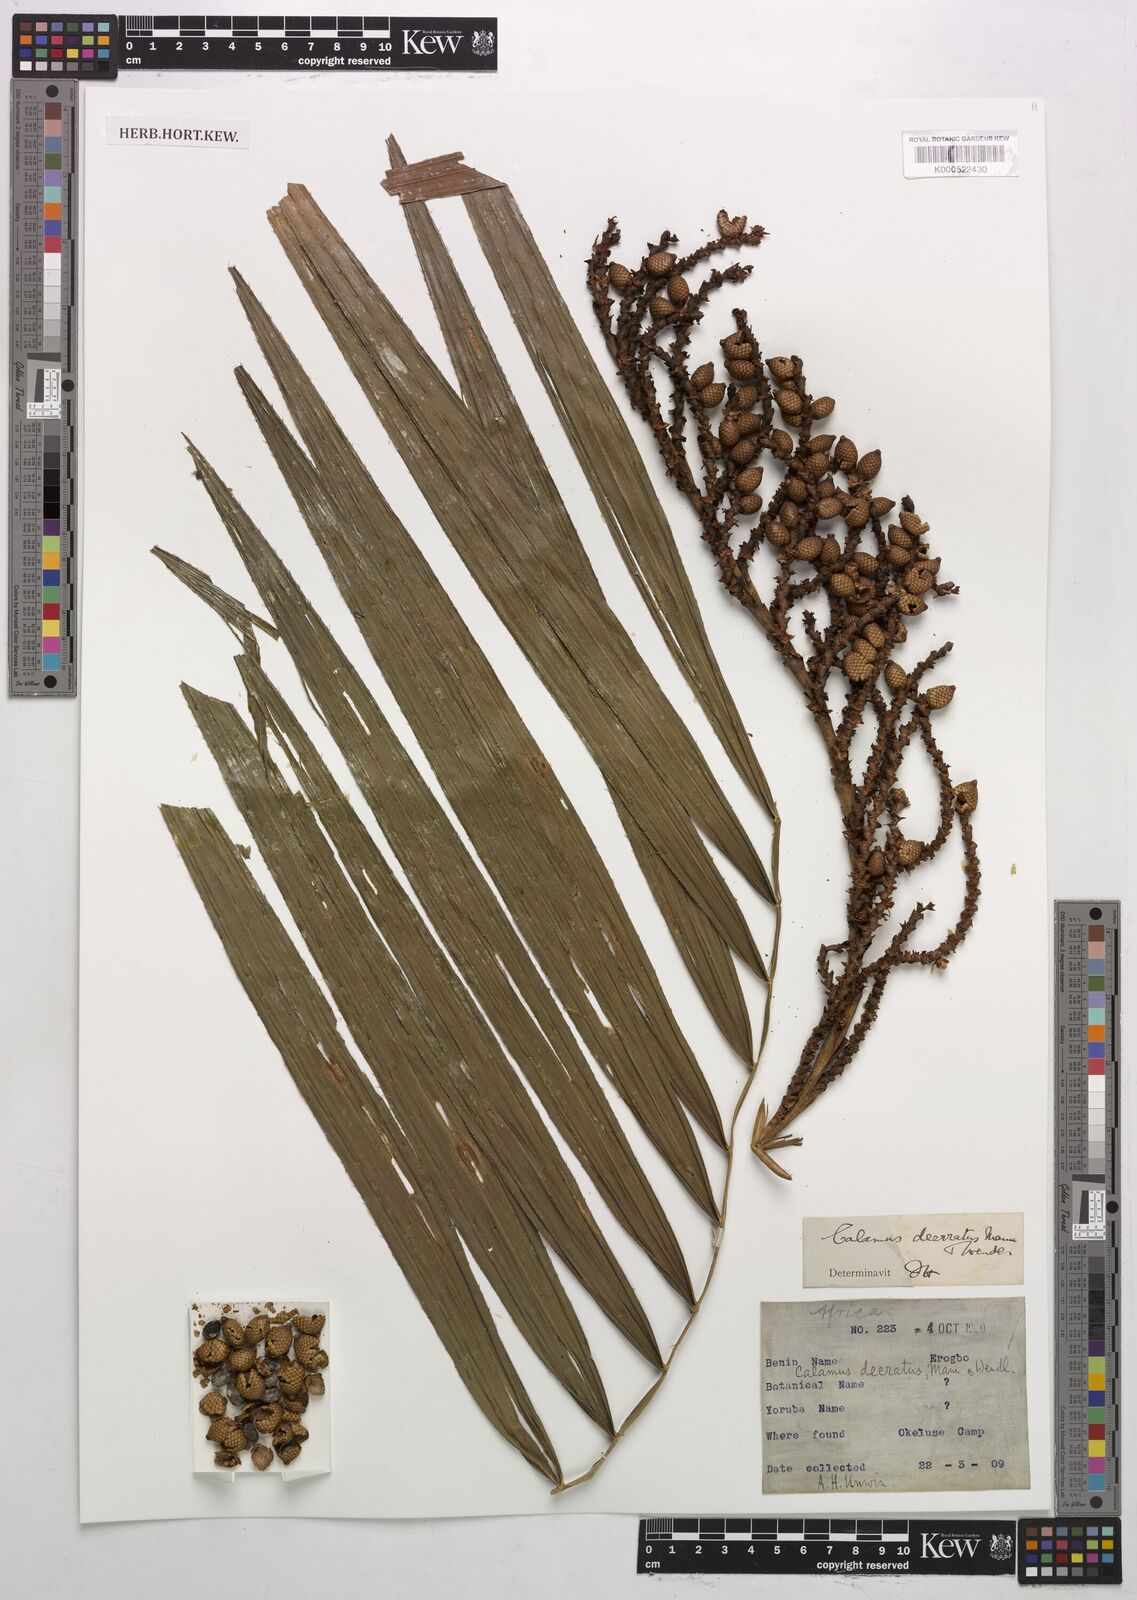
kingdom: Plantae
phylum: Tracheophyta
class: Liliopsida
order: Arecales
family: Arecaceae
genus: Calamus
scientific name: Calamus deerratus
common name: Rattan
